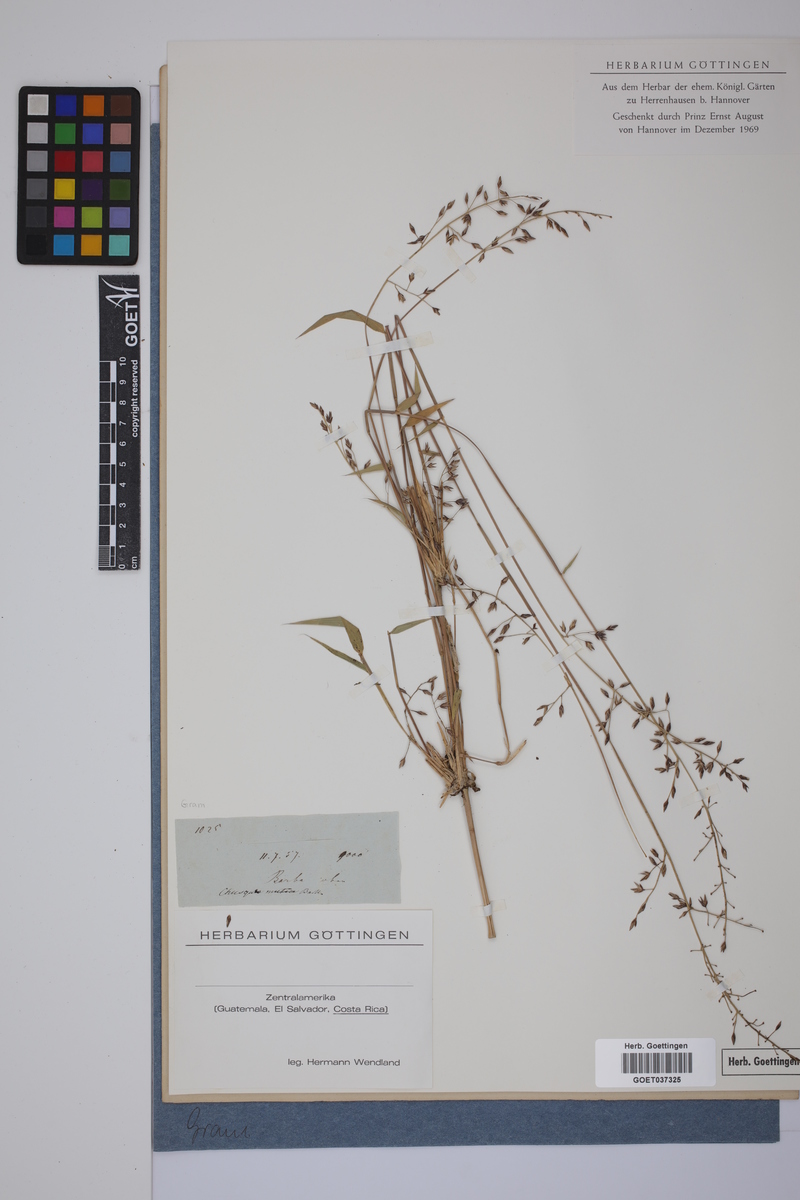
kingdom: Plantae
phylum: Tracheophyta
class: Liliopsida
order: Poales
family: Poaceae
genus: Chusquea
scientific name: Chusquea
